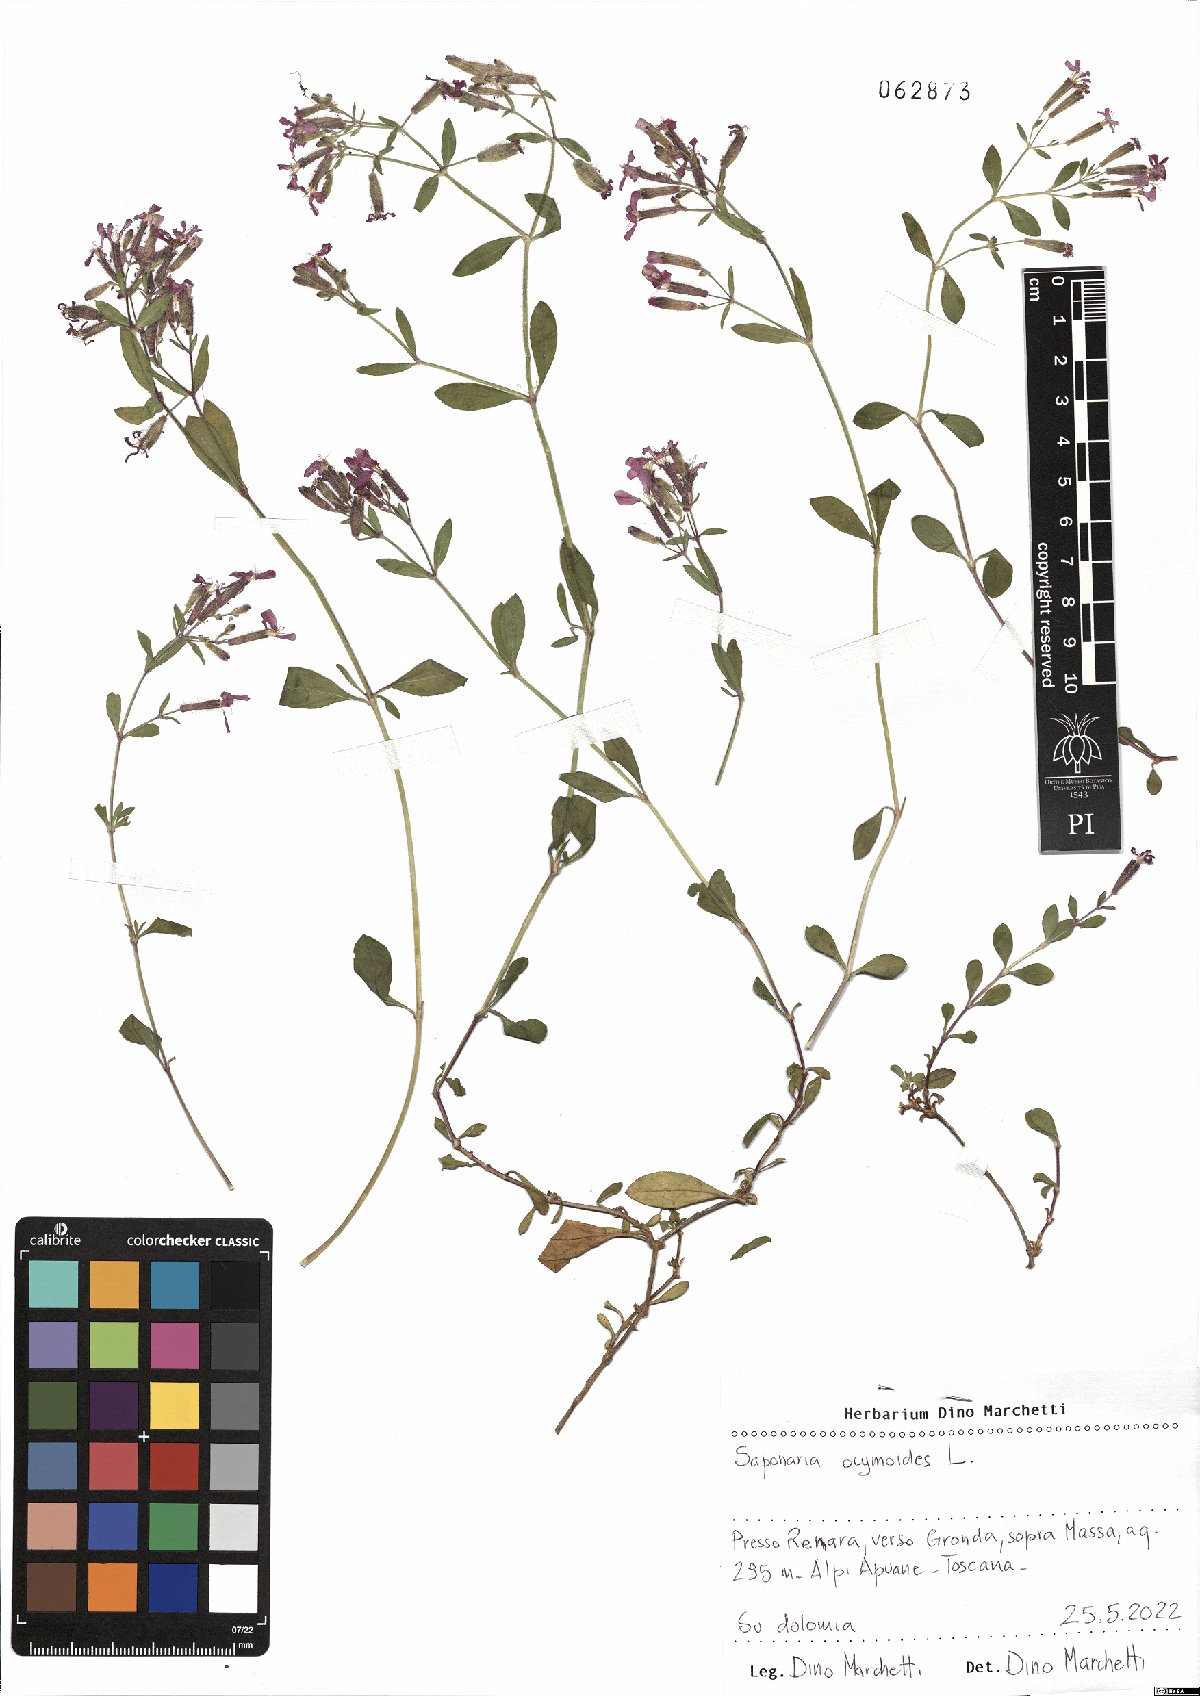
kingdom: Plantae
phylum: Tracheophyta
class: Magnoliopsida
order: Caryophyllales
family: Caryophyllaceae
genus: Saponaria
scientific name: Saponaria ocymoides
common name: Rock soapwort
